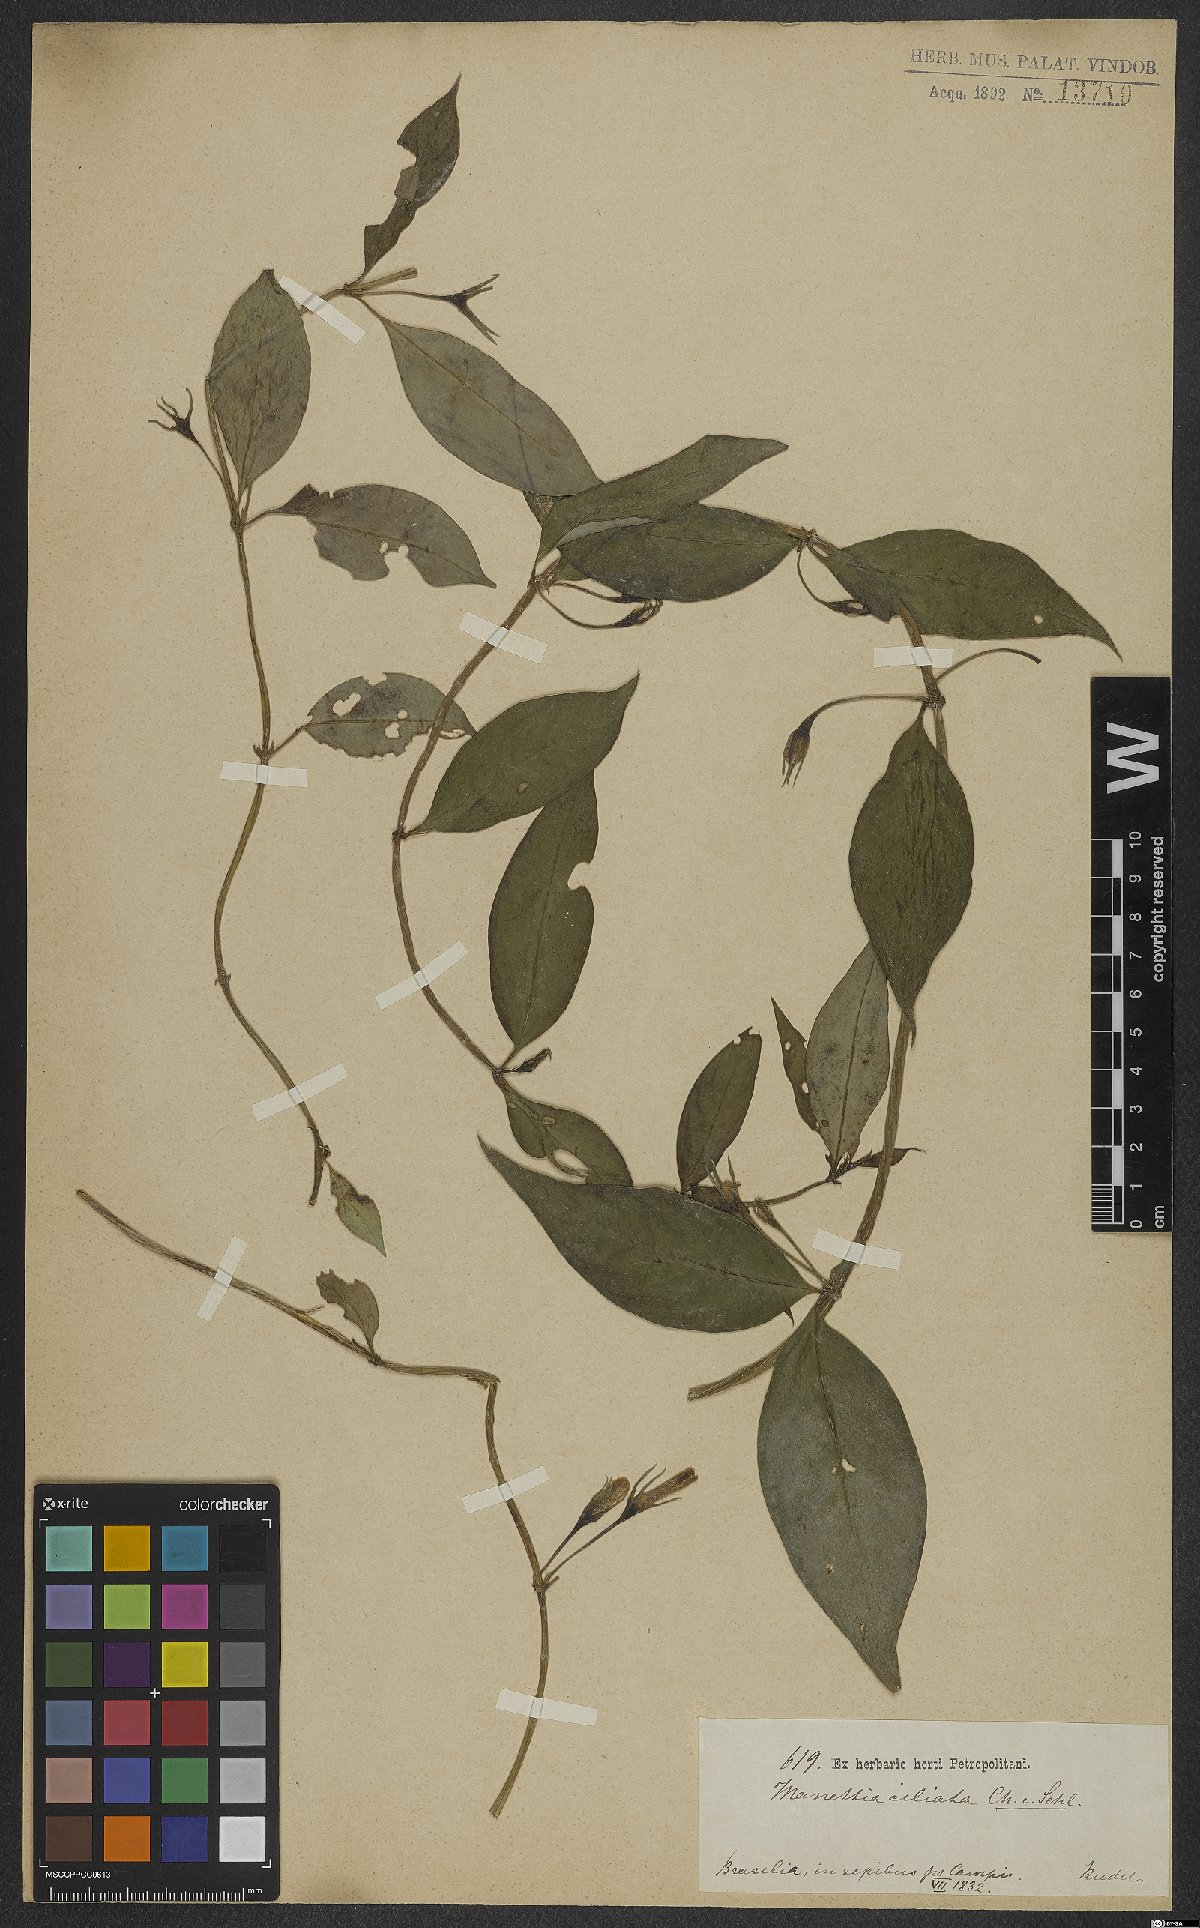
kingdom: Plantae
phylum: Tracheophyta
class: Magnoliopsida
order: Gentianales
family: Rubiaceae
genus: Manettia
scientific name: Manettia pedunculata
